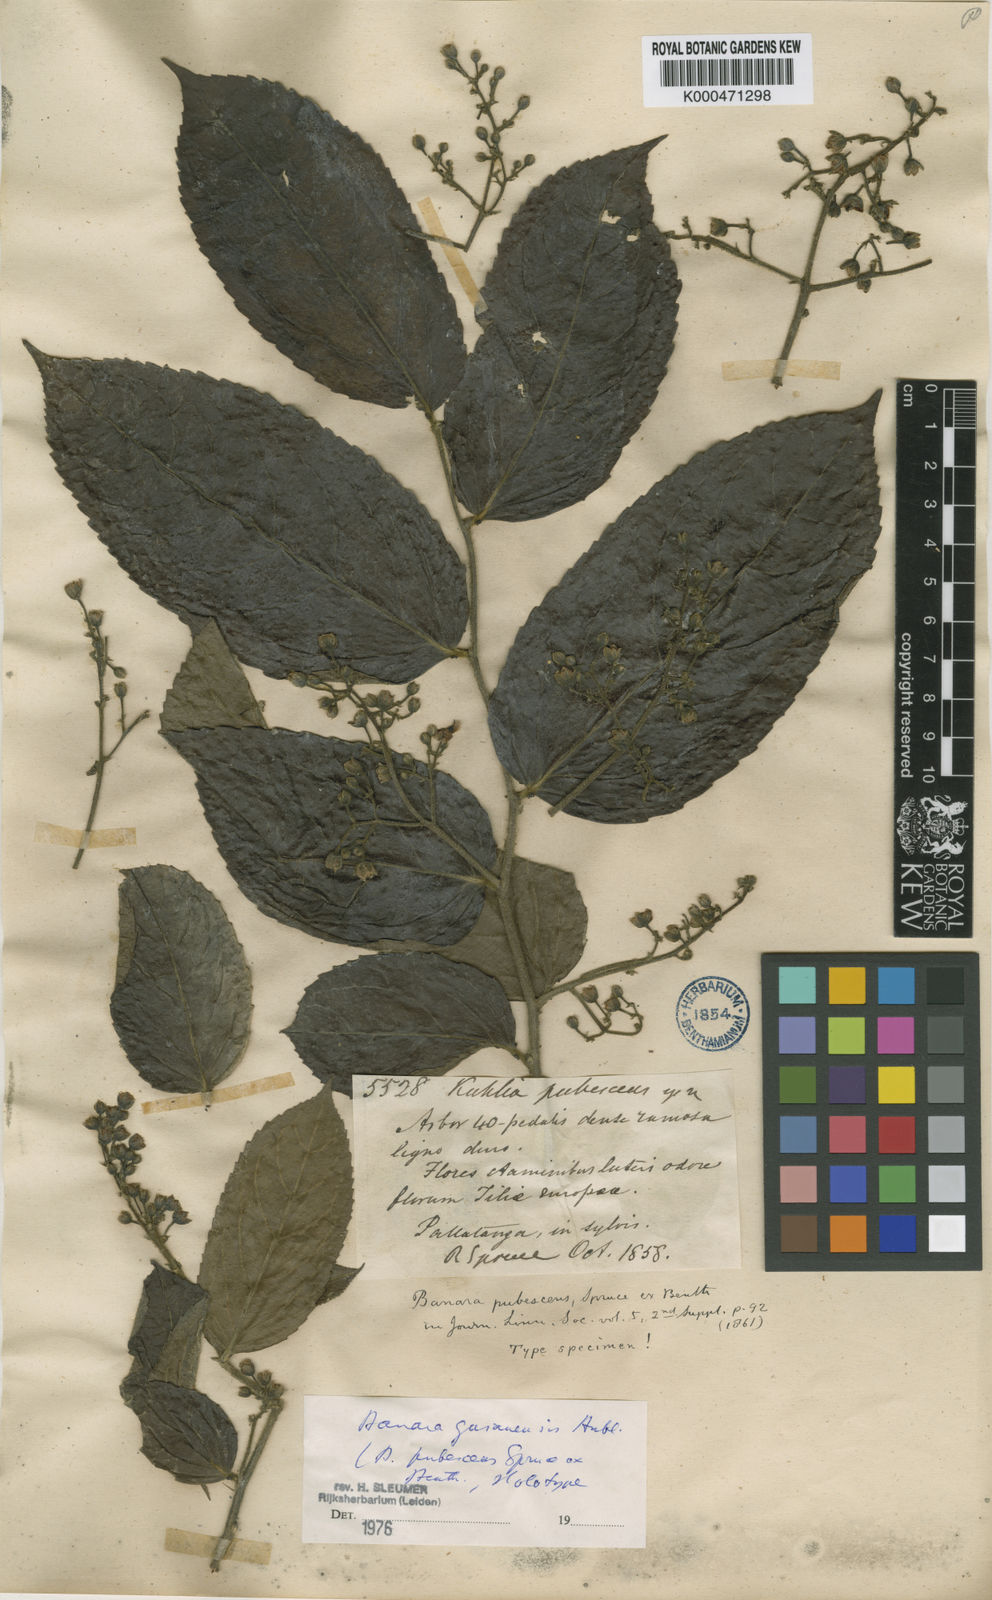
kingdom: Plantae
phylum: Tracheophyta
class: Magnoliopsida
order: Malpighiales
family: Salicaceae
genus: Banara
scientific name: Banara guianensis
